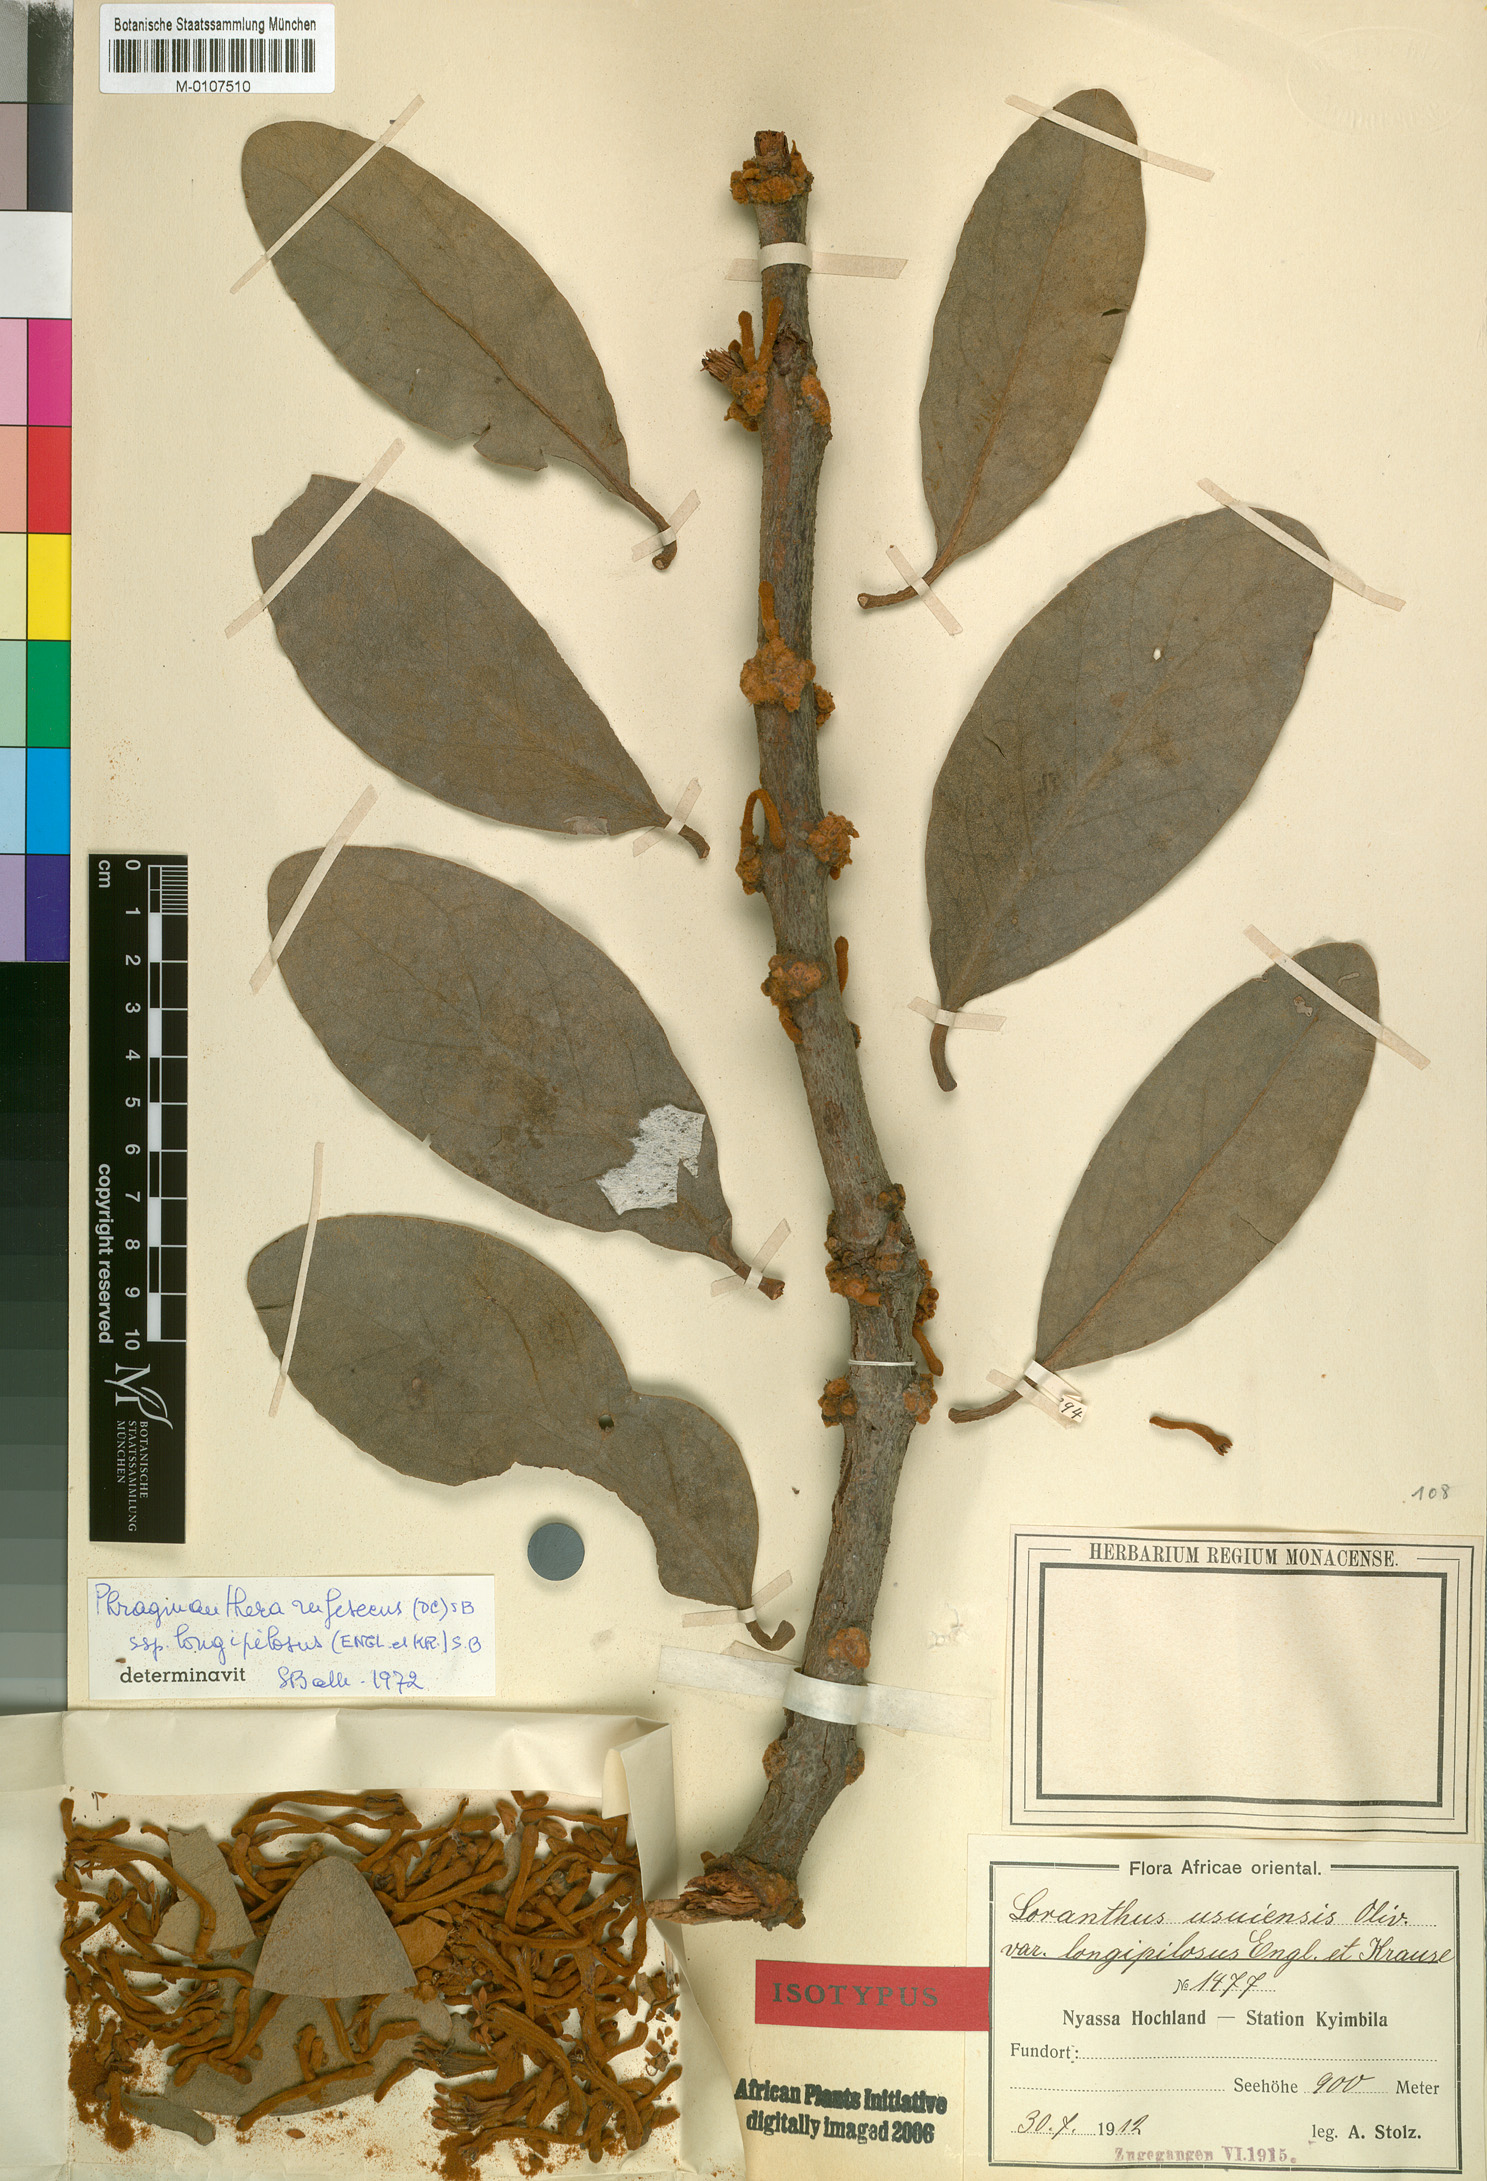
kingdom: Plantae
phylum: Tracheophyta
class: Magnoliopsida
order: Santalales
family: Loranthaceae
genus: Phragmanthera
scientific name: Phragmanthera cornetii
